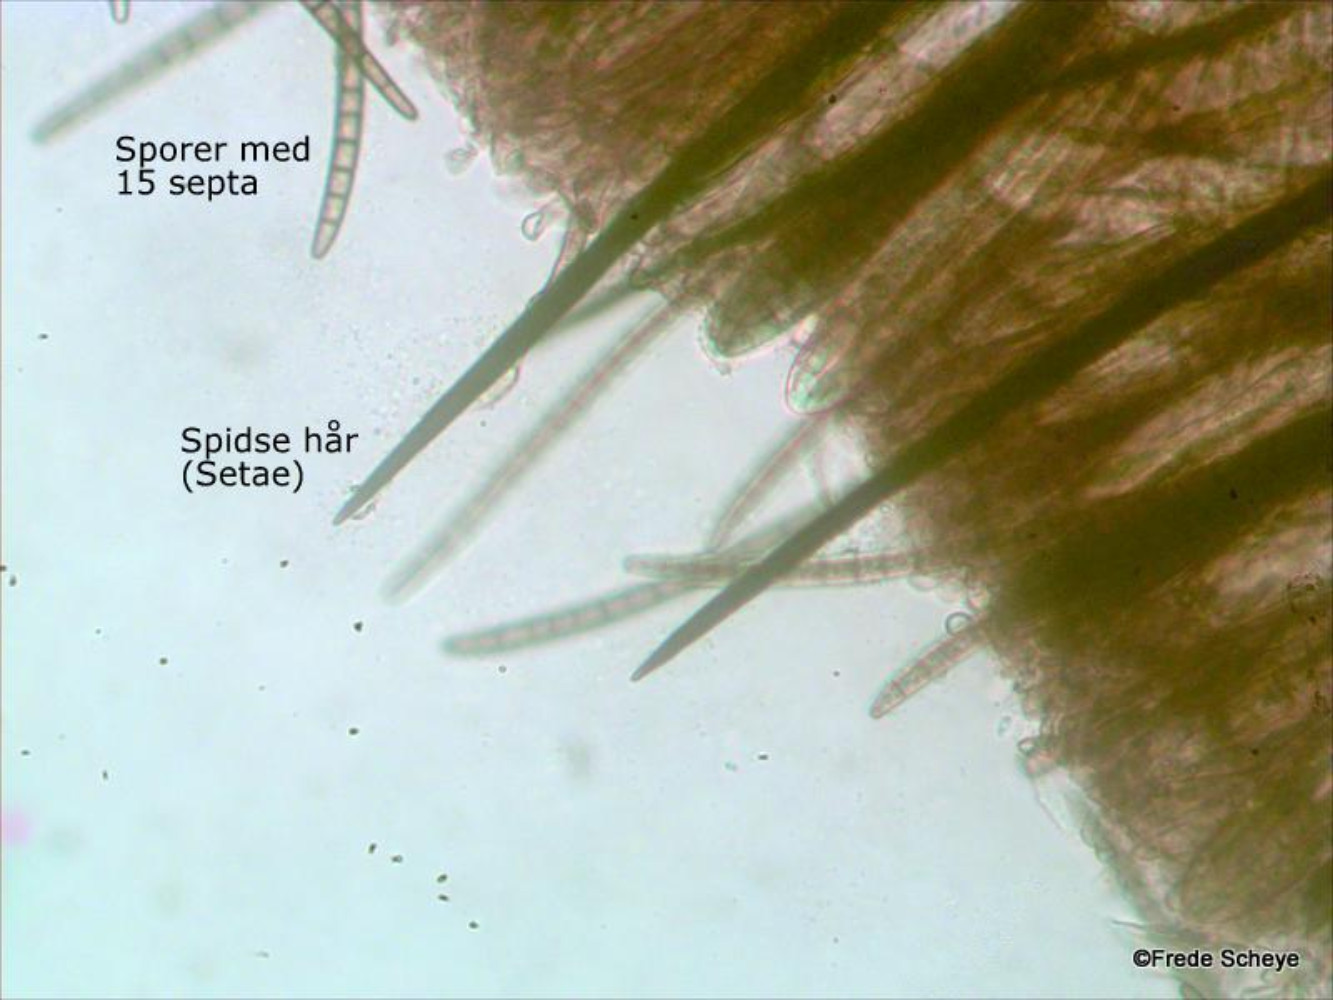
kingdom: Fungi
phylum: Ascomycota
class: Geoglossomycetes
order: Geoglossales
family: Geoglossaceae
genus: Trichoglossum
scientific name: Trichoglossum hirsutum
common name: håret jordtunge
